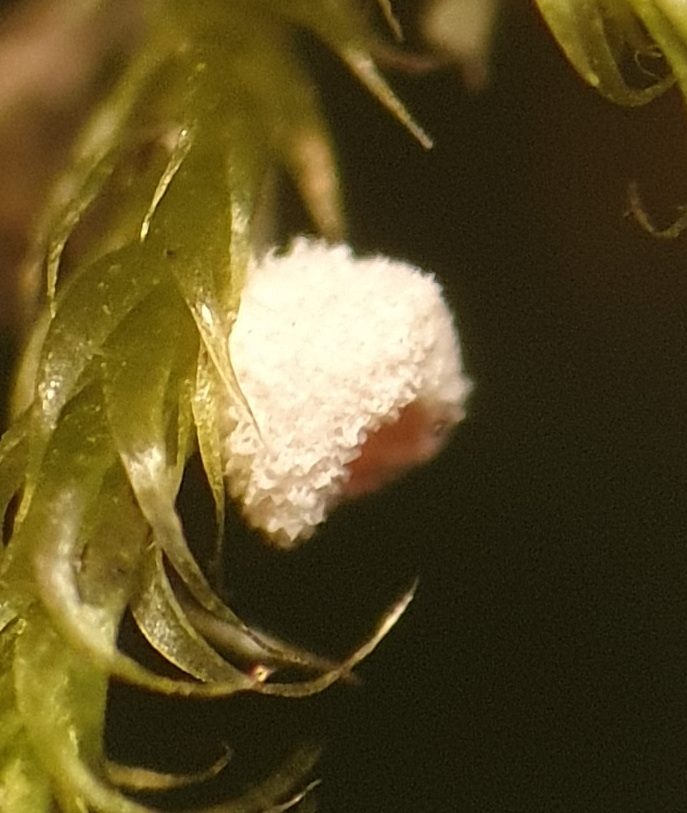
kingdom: Fungi
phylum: Basidiomycota
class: Agaricomycetes
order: Agaricales
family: Chromocyphellaceae
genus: Chromocyphella
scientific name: Chromocyphella muscicola
